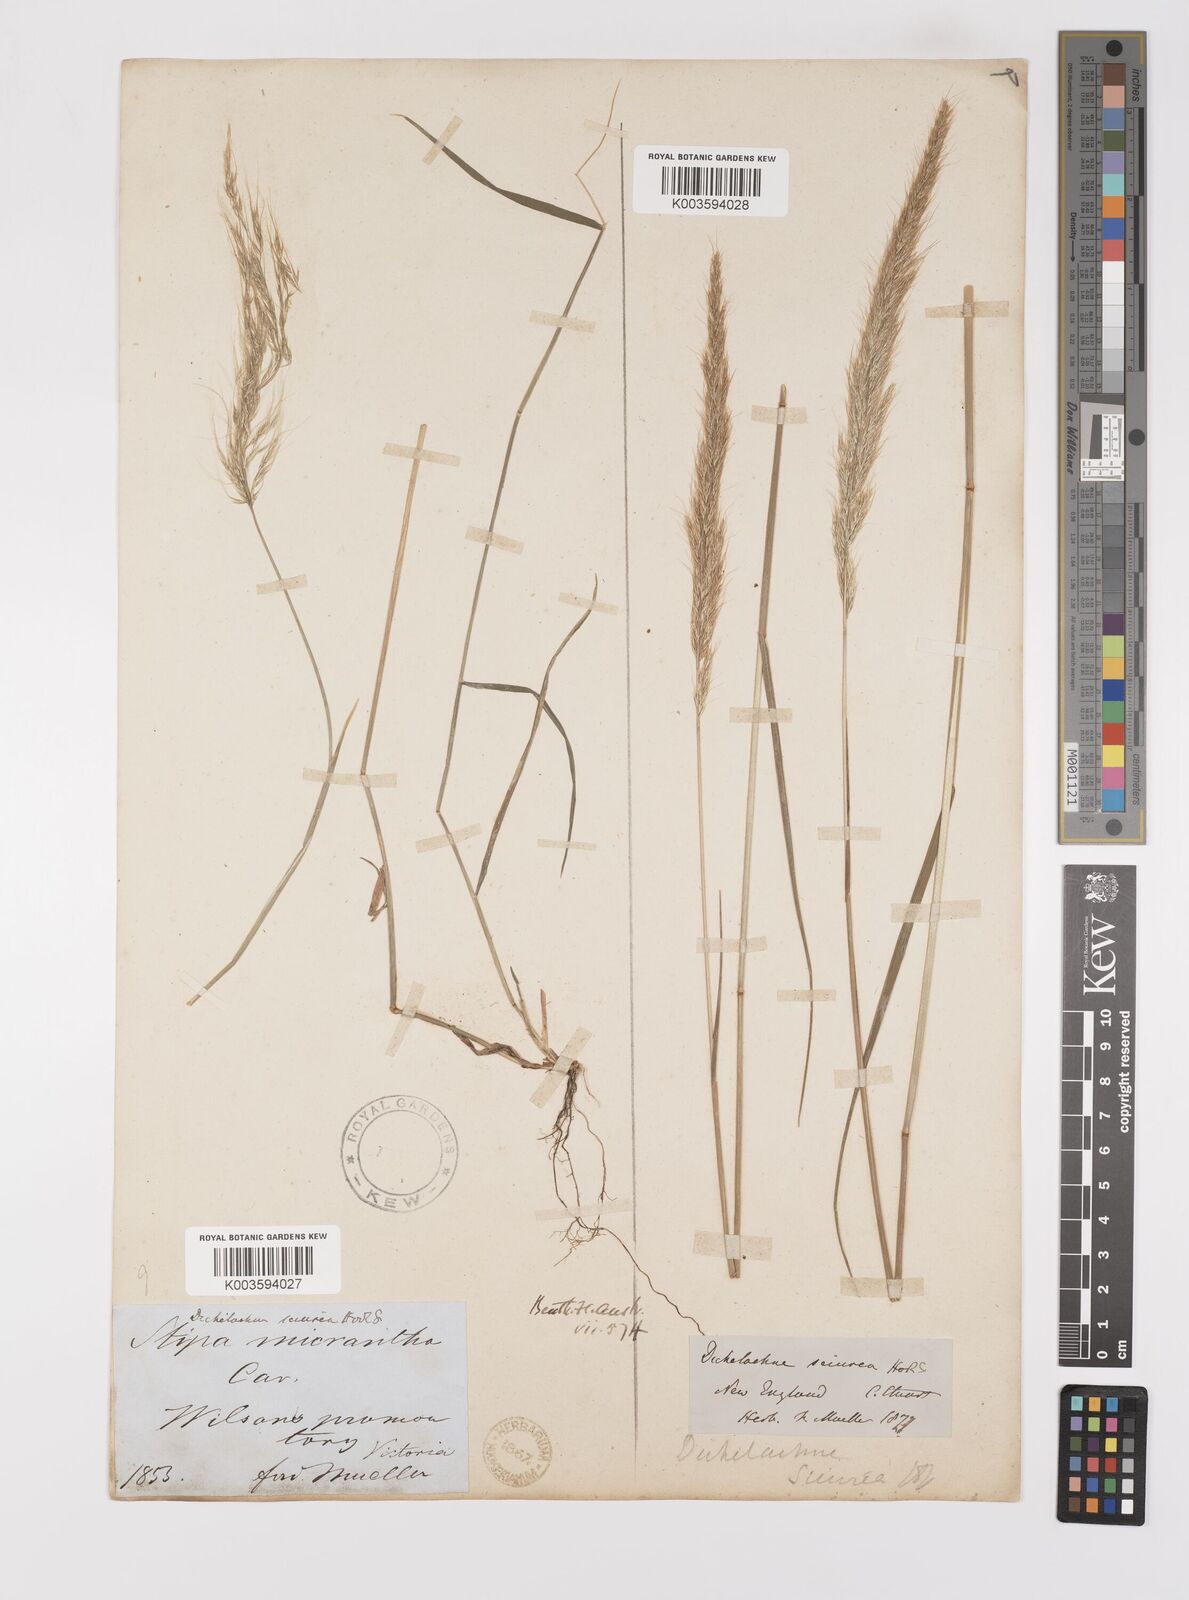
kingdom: Plantae
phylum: Tracheophyta
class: Liliopsida
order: Poales
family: Poaceae
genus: Dichelachne
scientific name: Dichelachne micrantha
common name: Plumegrass
